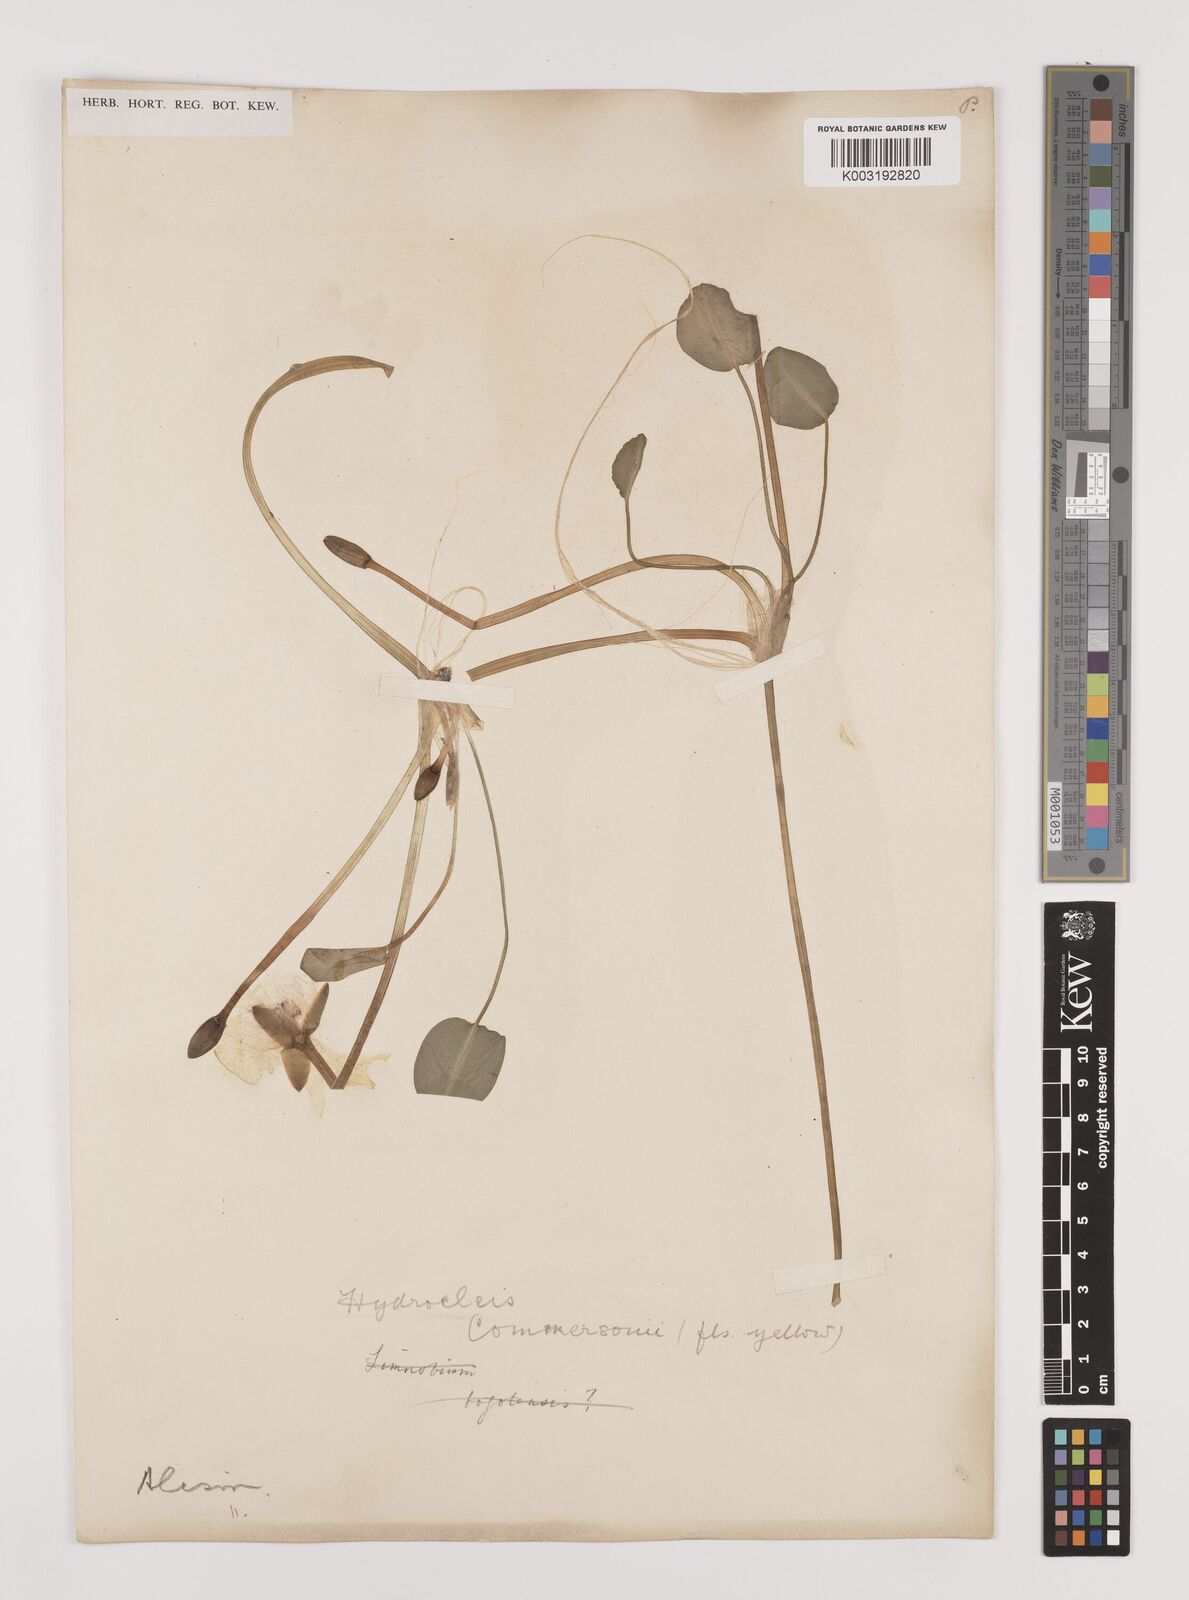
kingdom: Plantae
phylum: Tracheophyta
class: Liliopsida
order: Alismatales
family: Alismataceae
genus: Hydrocleys
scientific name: Hydrocleys nymphoides
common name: Water-poppy
